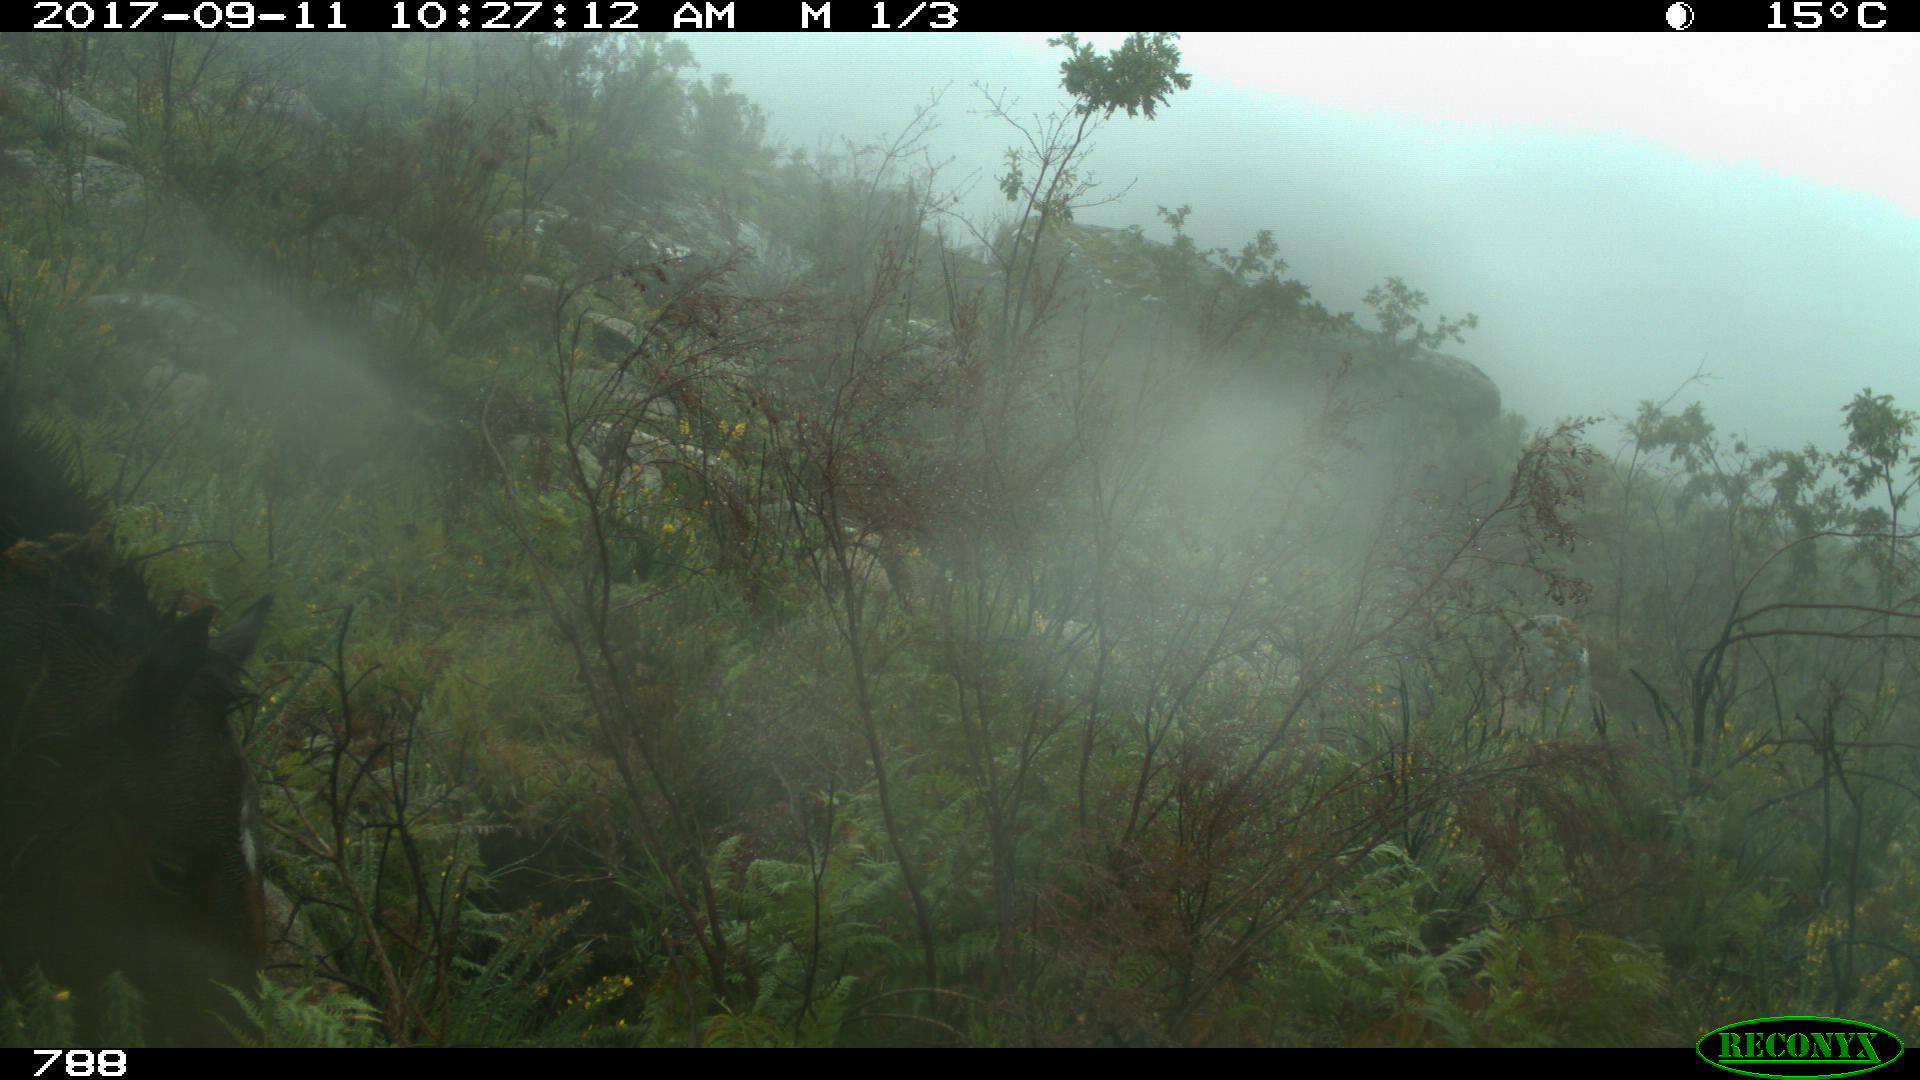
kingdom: Animalia
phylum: Chordata
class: Mammalia
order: Perissodactyla
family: Equidae
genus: Equus
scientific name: Equus caballus
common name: Horse
